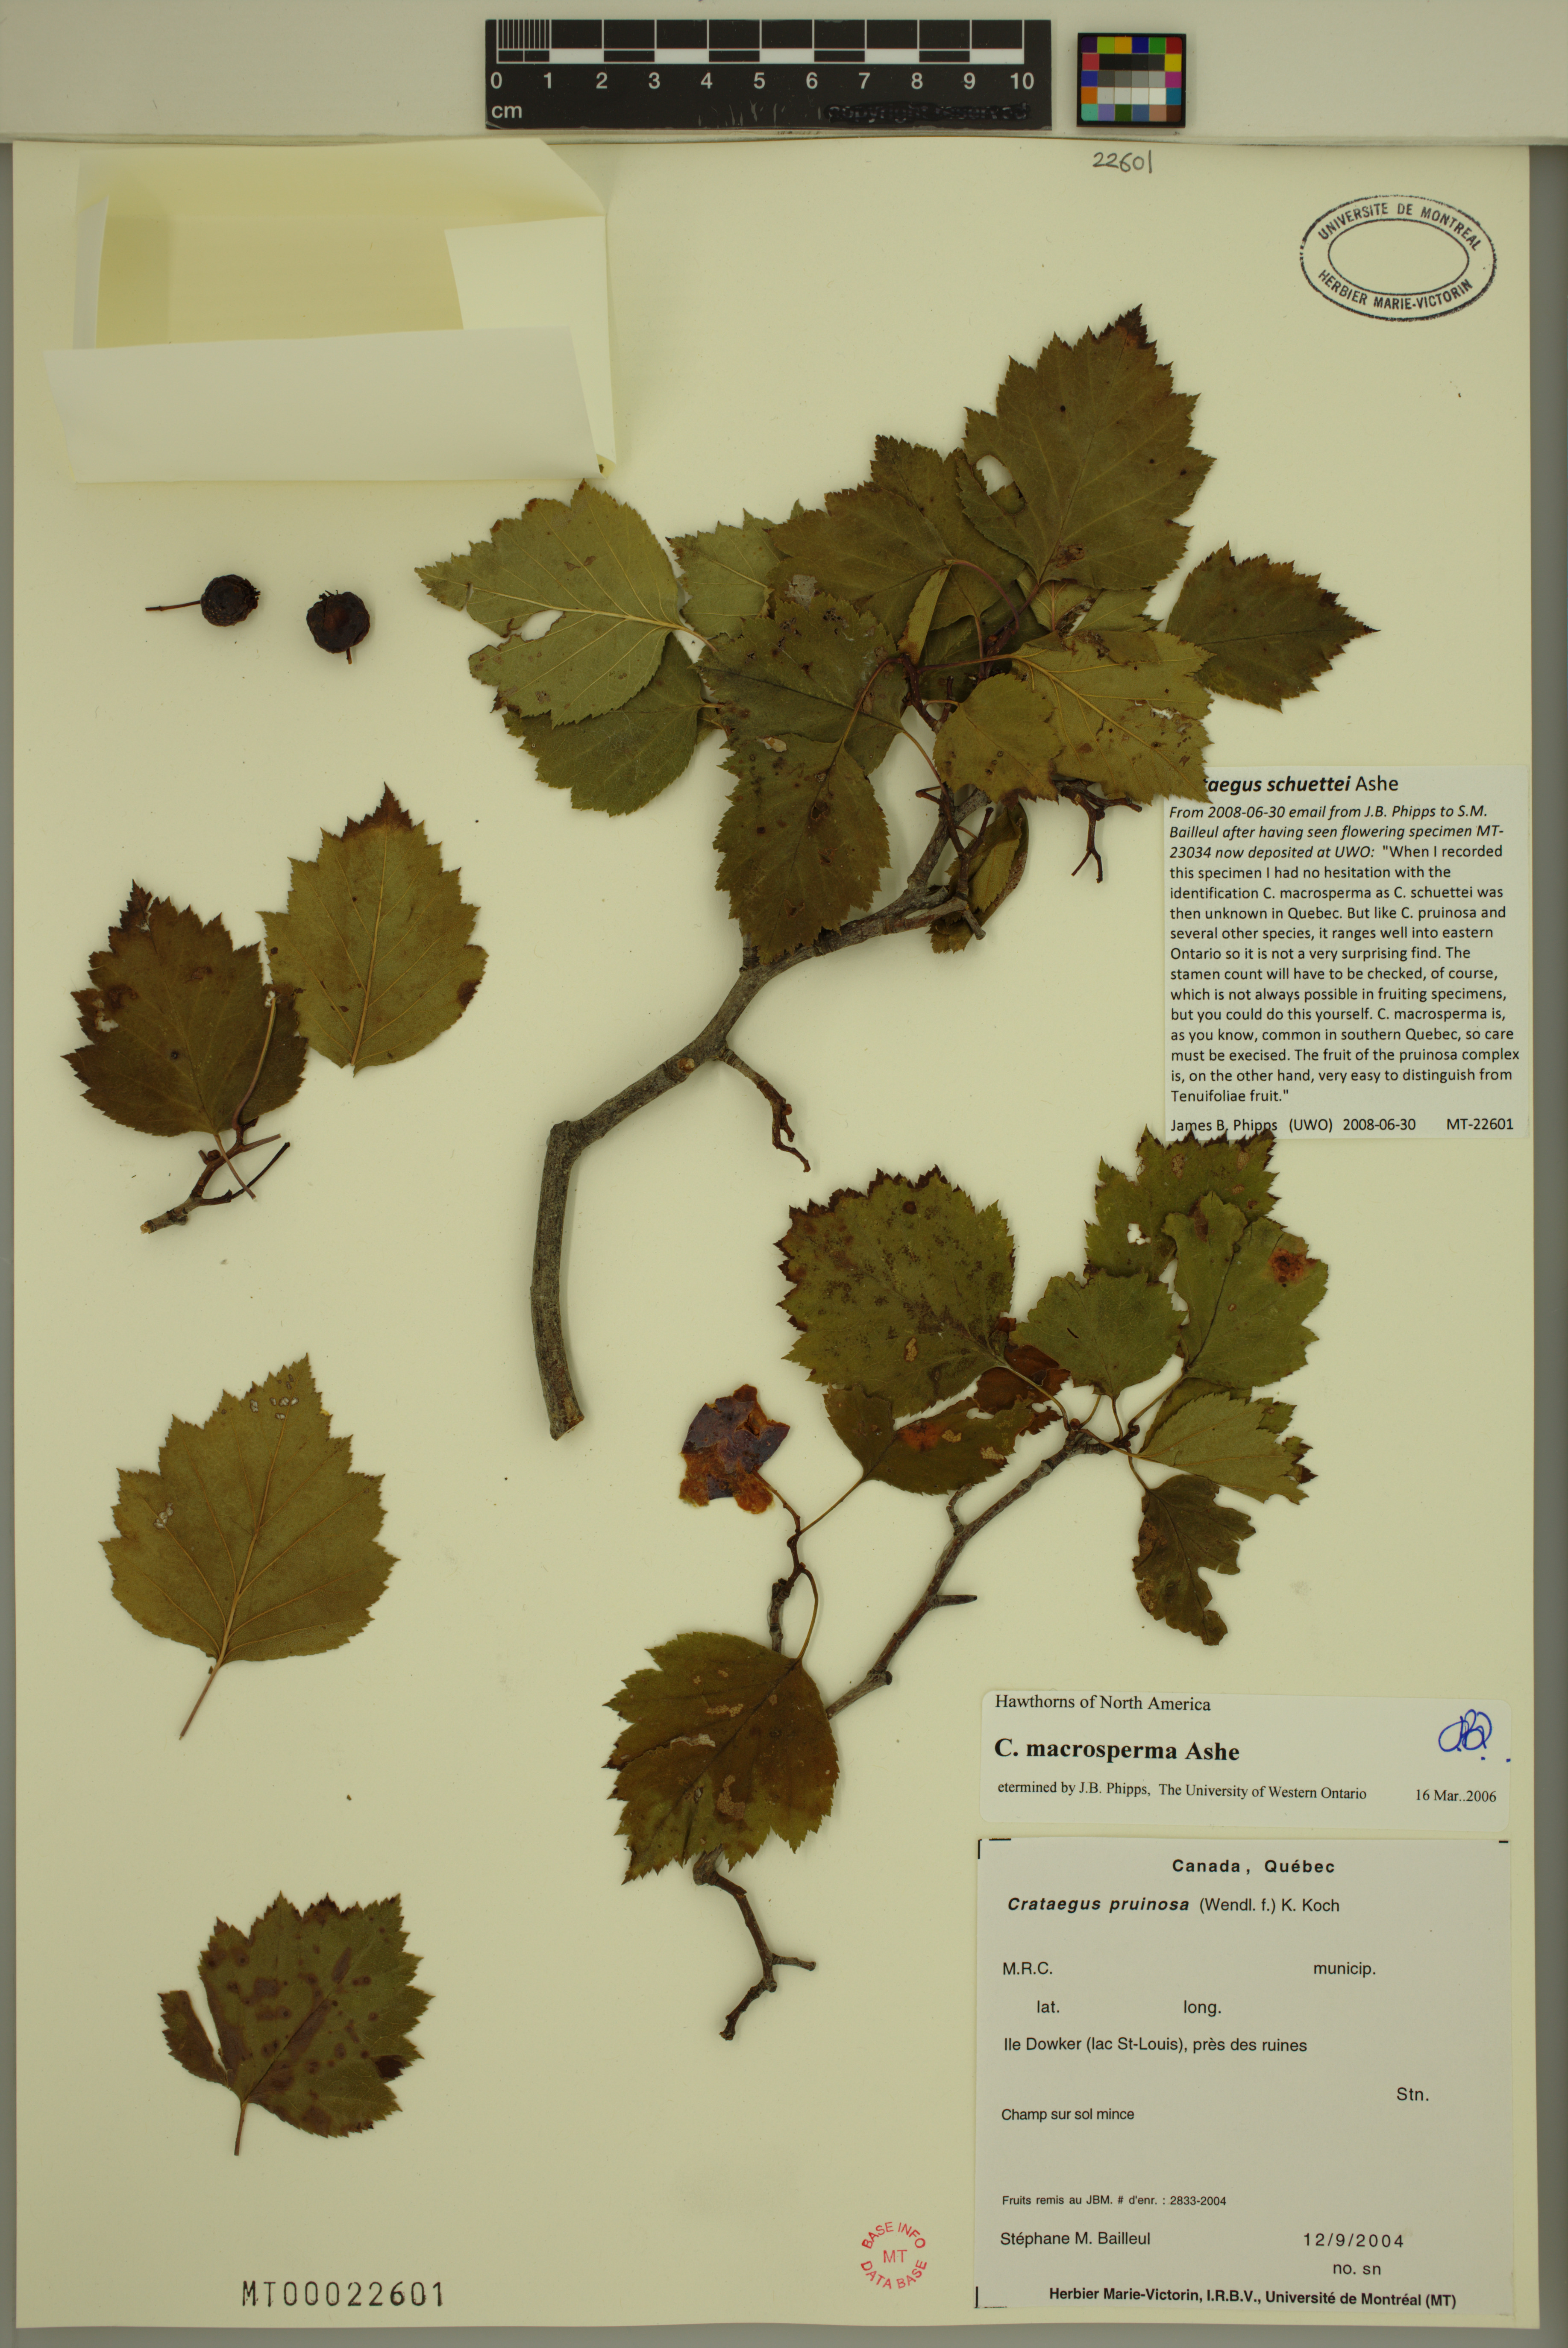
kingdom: Plantae
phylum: Tracheophyta
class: Magnoliopsida
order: Rosales
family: Rosaceae
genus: Crataegus
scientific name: Crataegus schuettei
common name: Schuette's hawthorn
